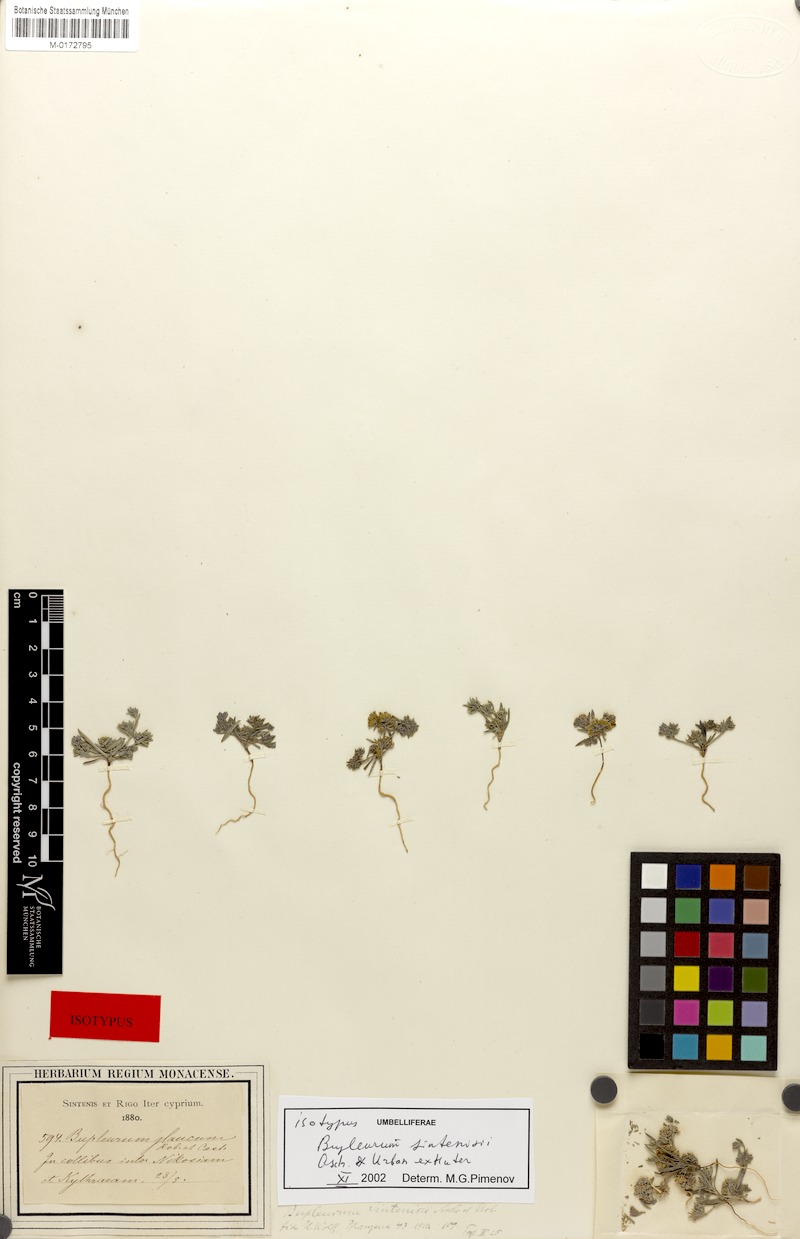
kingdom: Plantae
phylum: Tracheophyta
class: Magnoliopsida
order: Apiales
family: Apiaceae
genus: Bupleurum
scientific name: Bupleurum sintenisii
